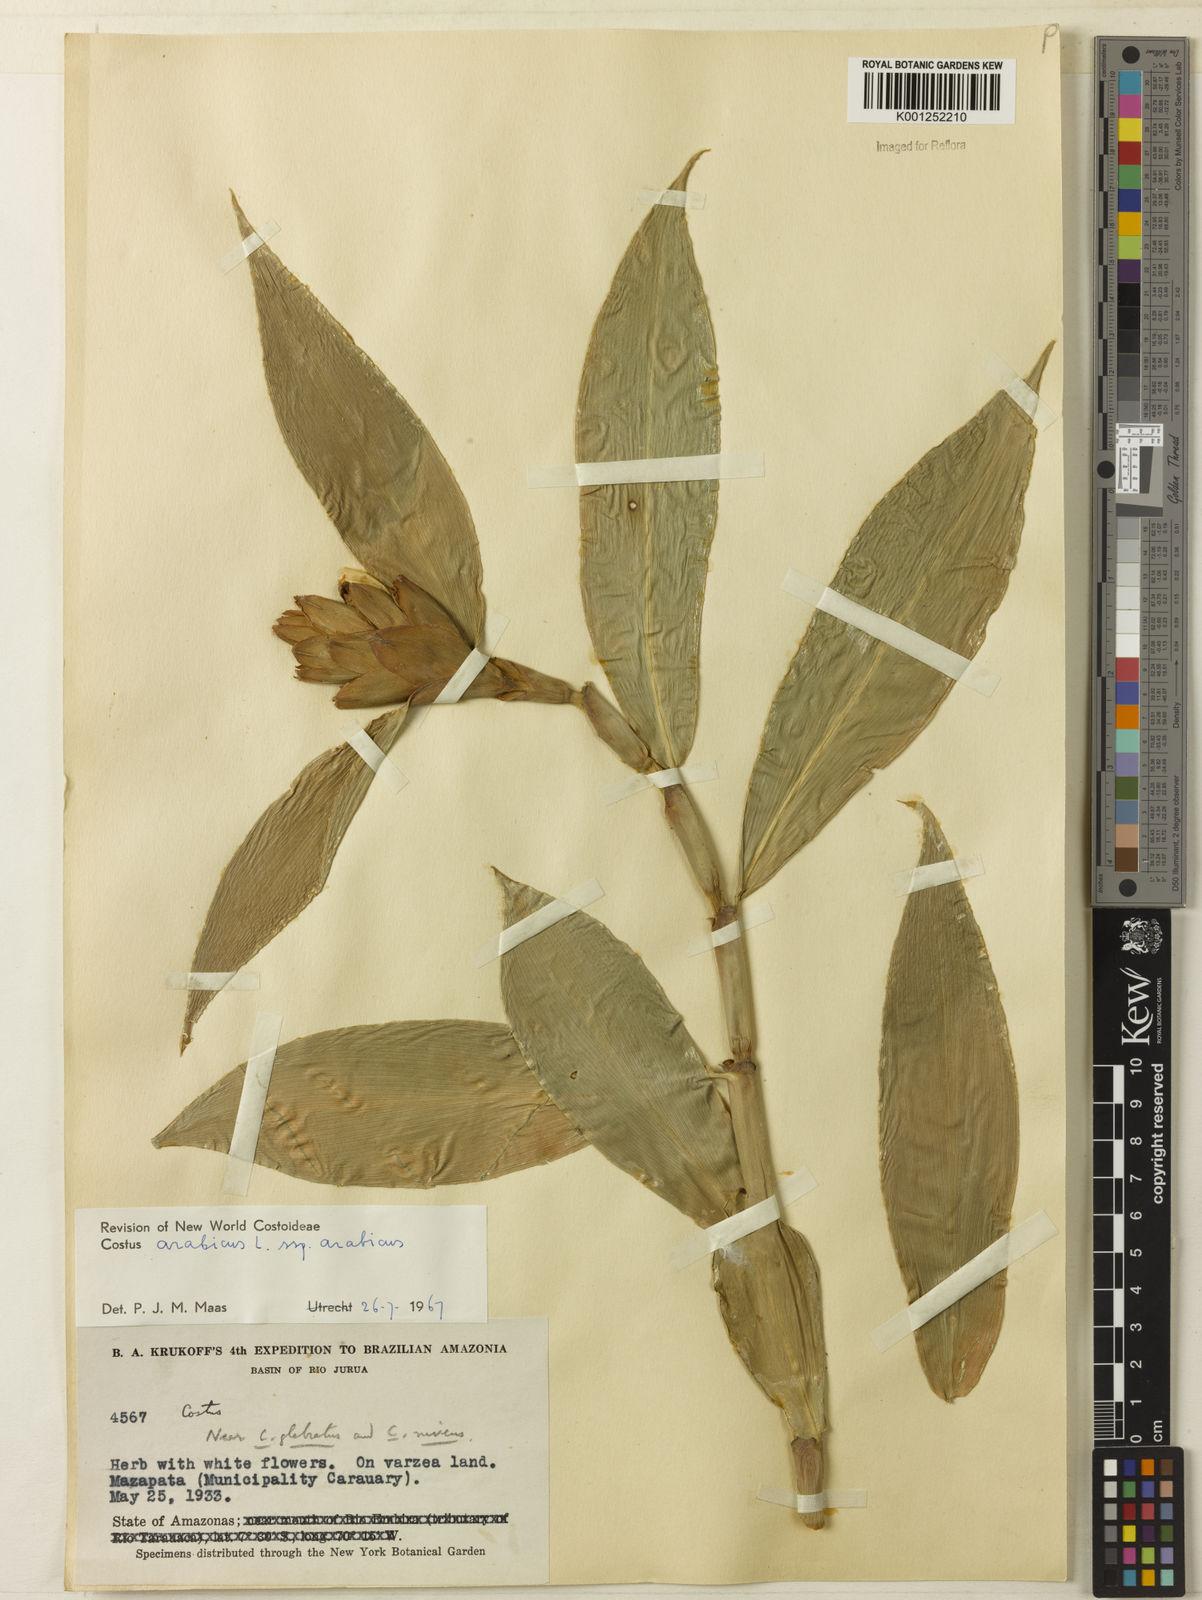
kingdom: Plantae
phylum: Tracheophyta
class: Liliopsida
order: Zingiberales
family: Costaceae
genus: Costus
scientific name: Costus arabicus
